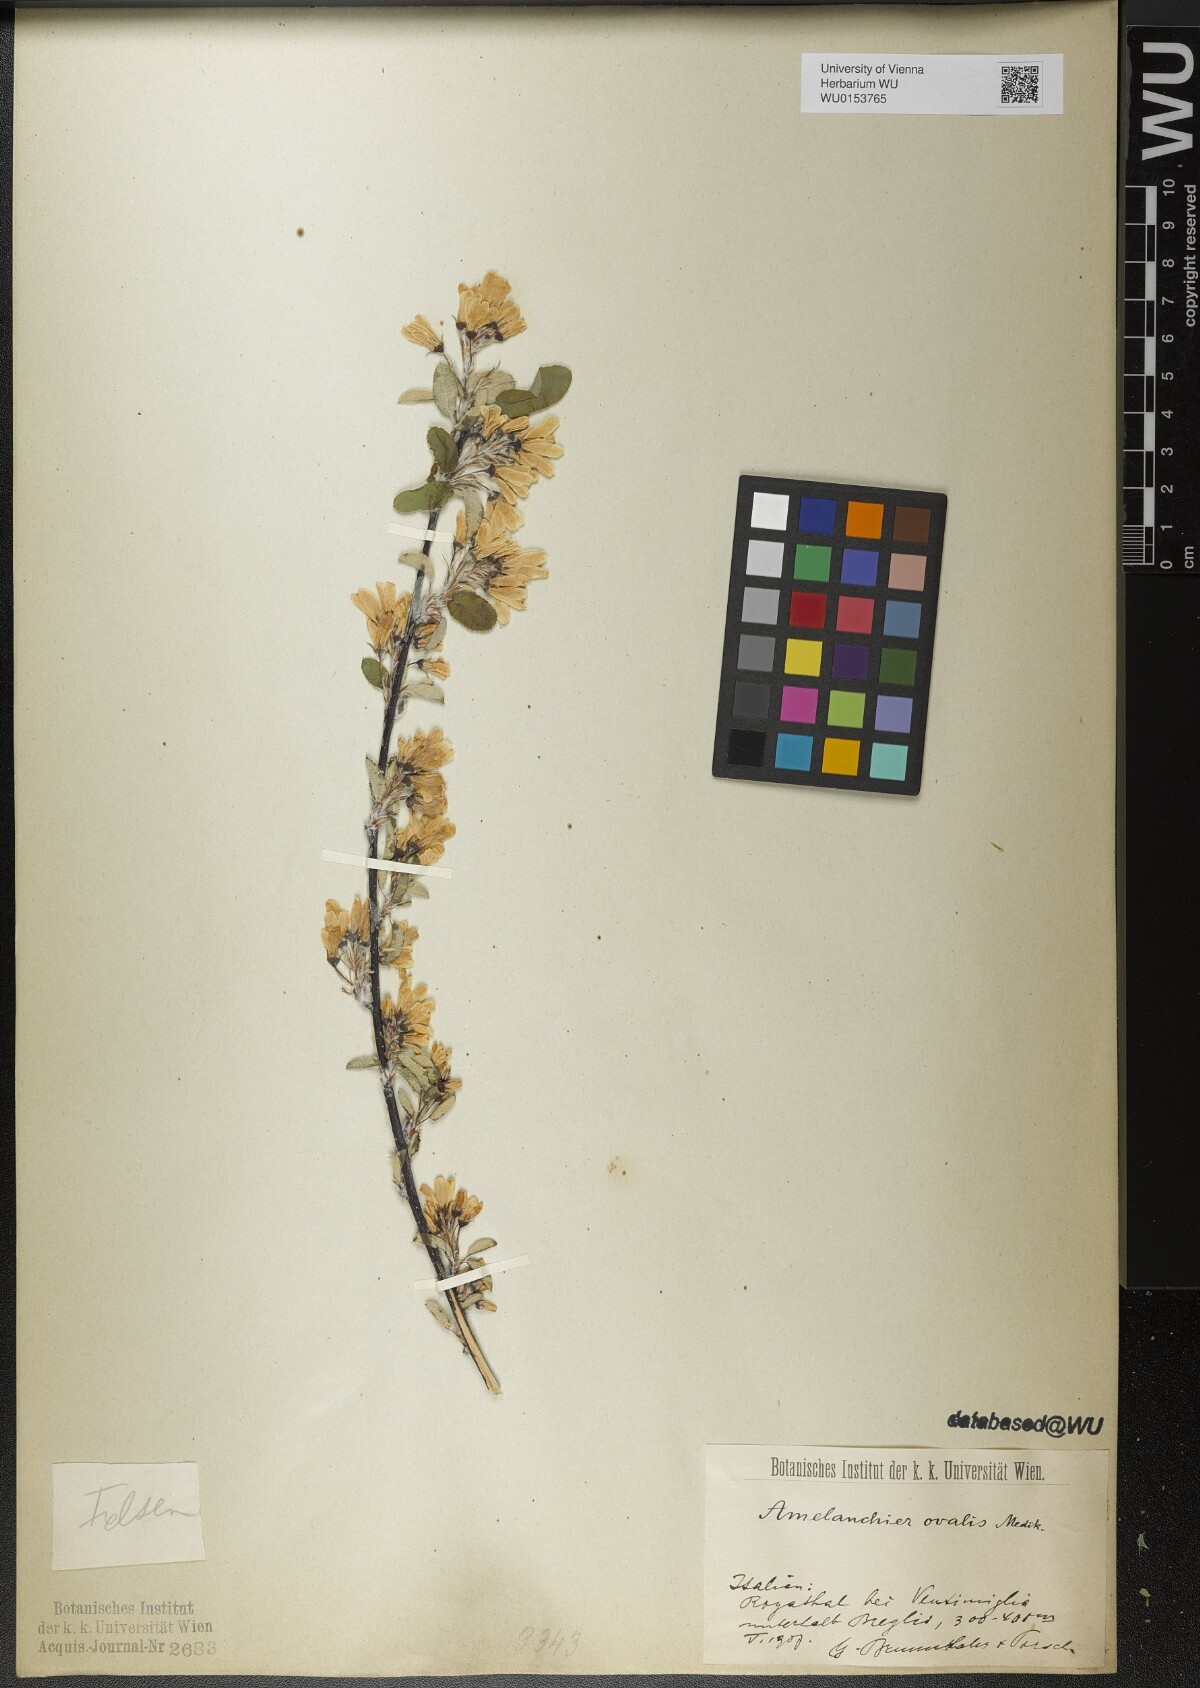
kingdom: Plantae
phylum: Tracheophyta
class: Magnoliopsida
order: Rosales
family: Rosaceae
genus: Amelanchier
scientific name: Amelanchier ovalis
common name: Serviceberry
